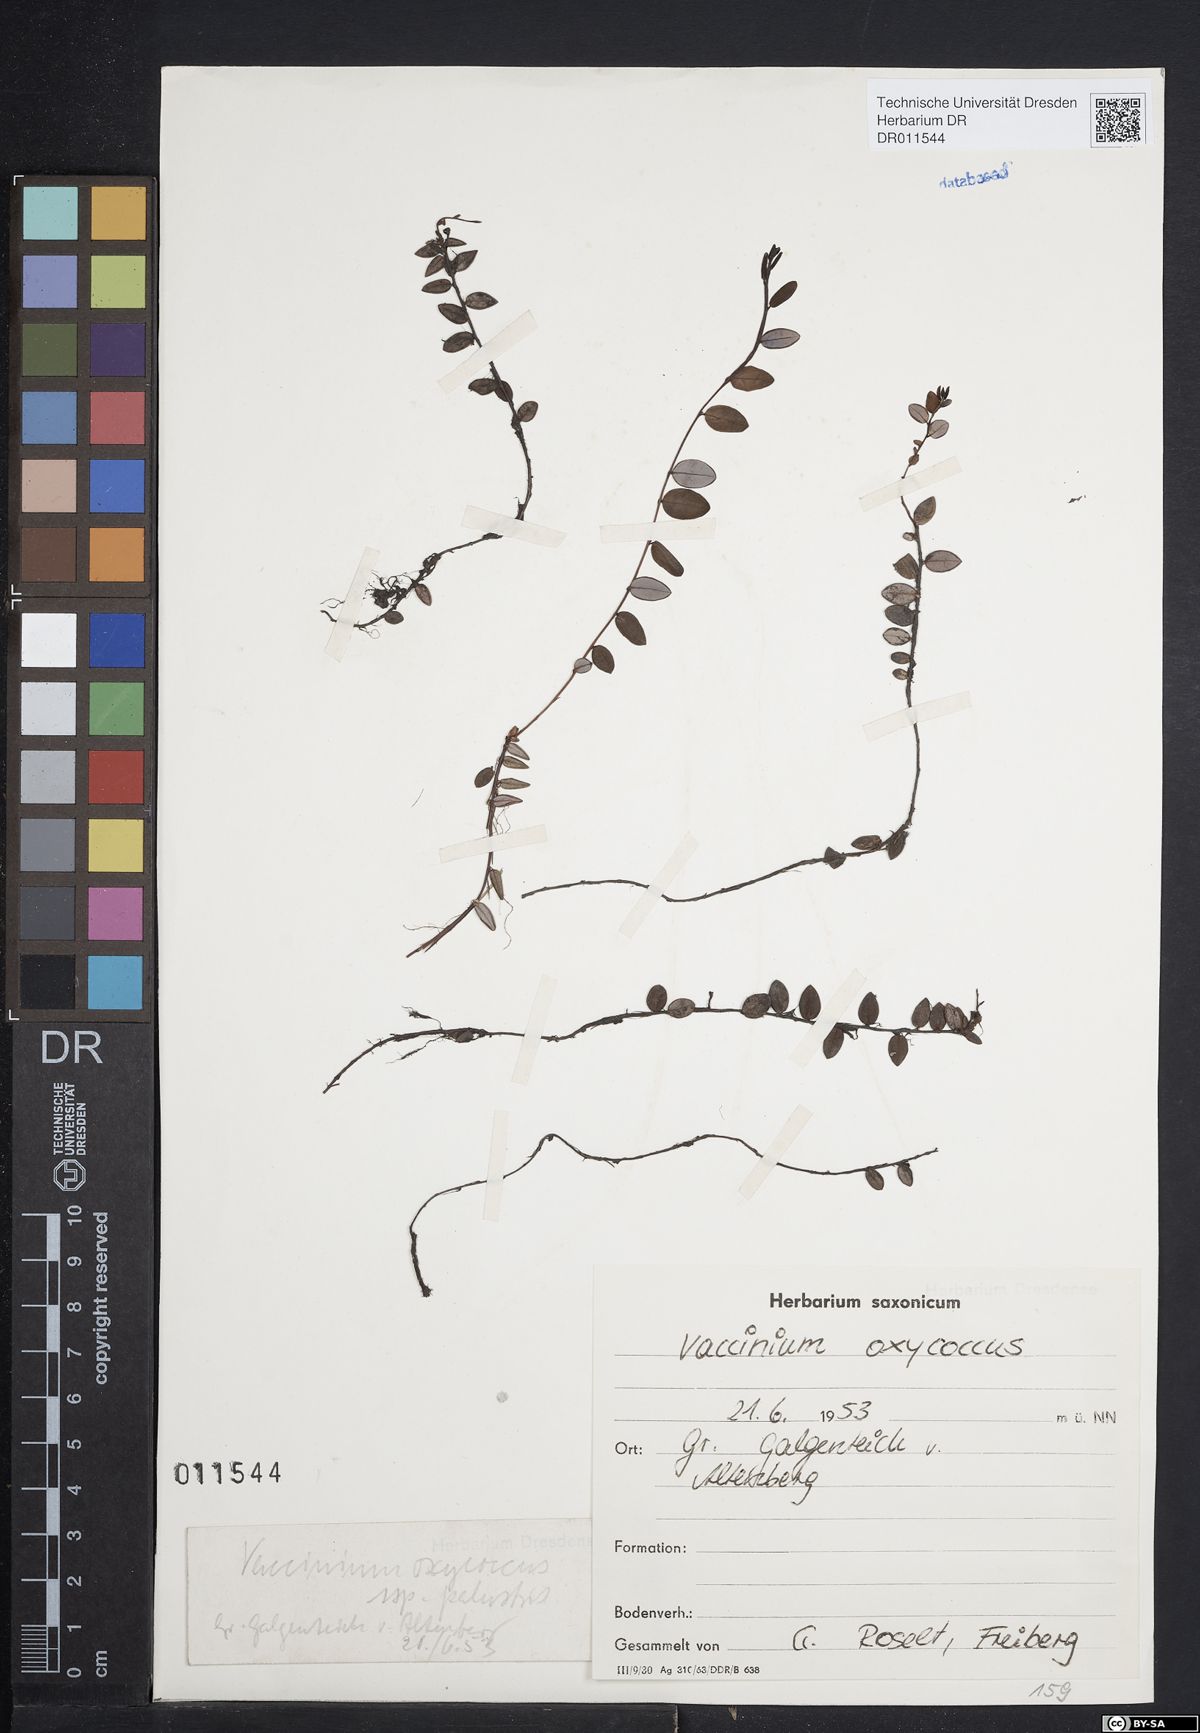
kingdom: Plantae
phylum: Tracheophyta
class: Magnoliopsida
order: Ericales
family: Ericaceae
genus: Vaccinium
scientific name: Vaccinium oxycoccos
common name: Cranberry
